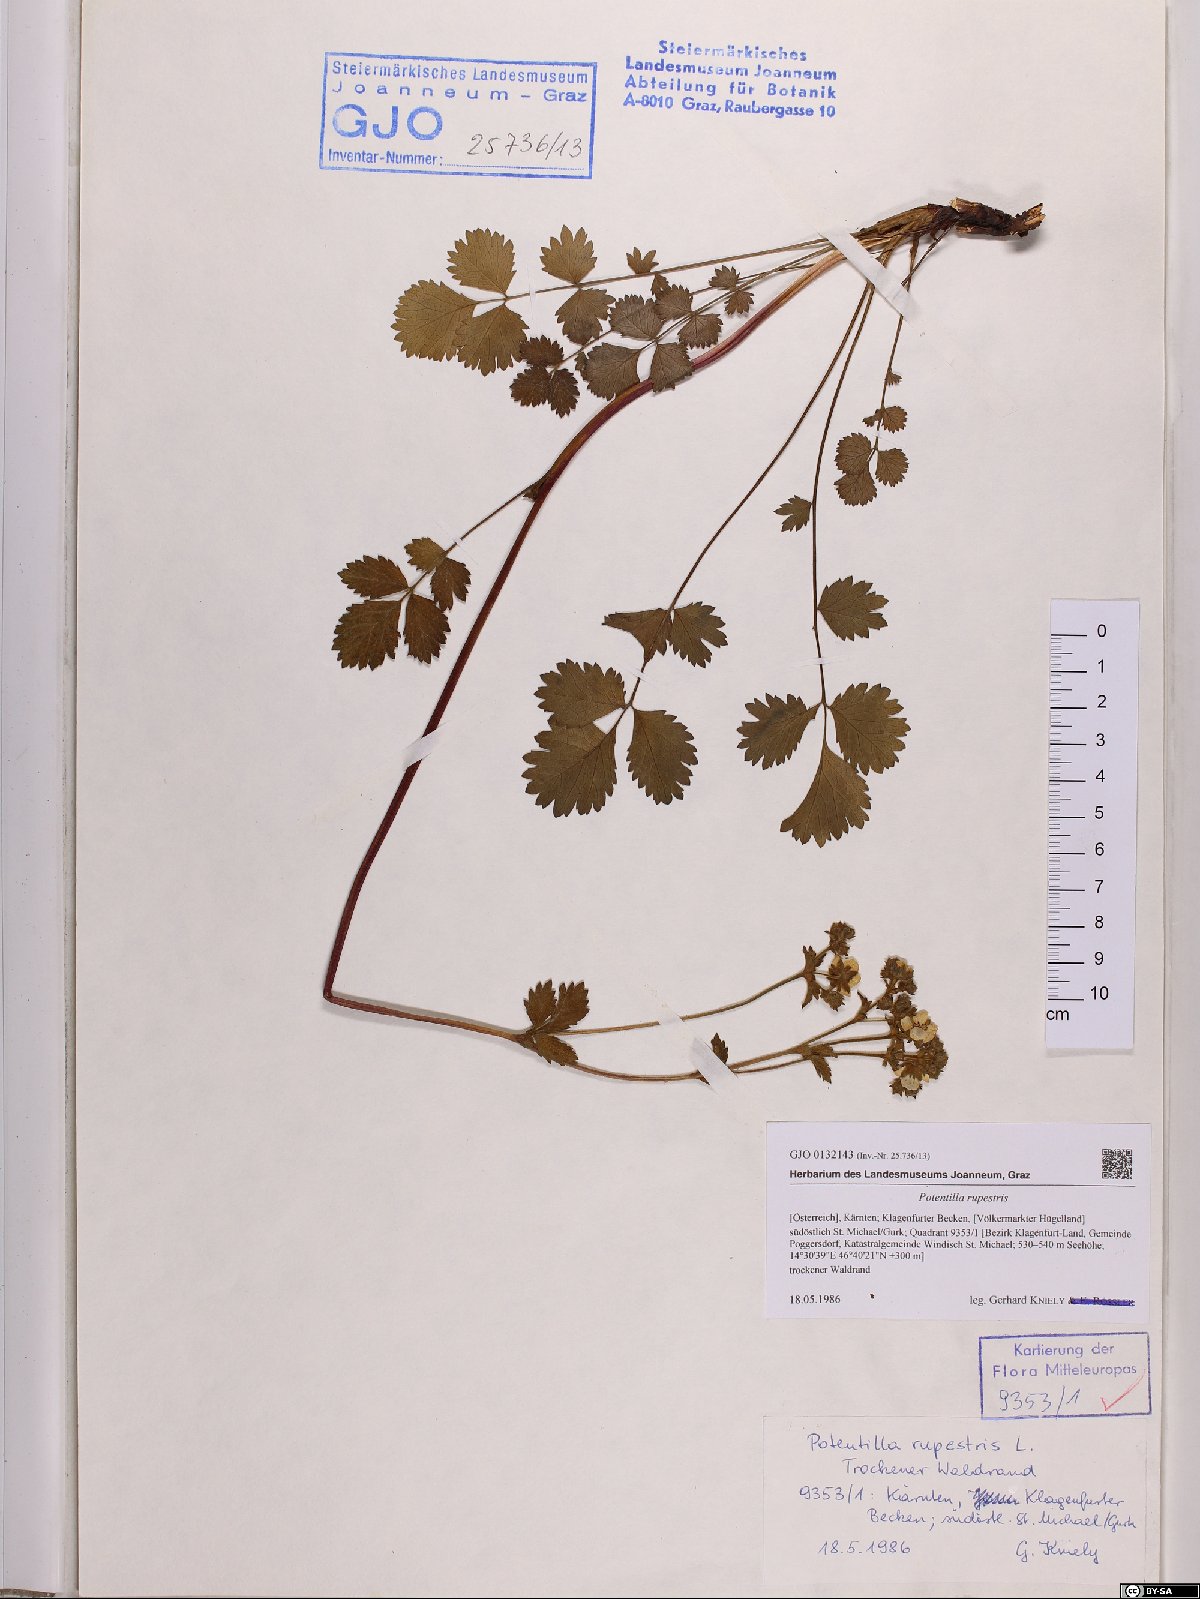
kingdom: Plantae
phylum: Tracheophyta
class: Magnoliopsida
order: Rosales
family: Rosaceae
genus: Drymocallis
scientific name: Drymocallis rupestris
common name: Rock cinquefoil
